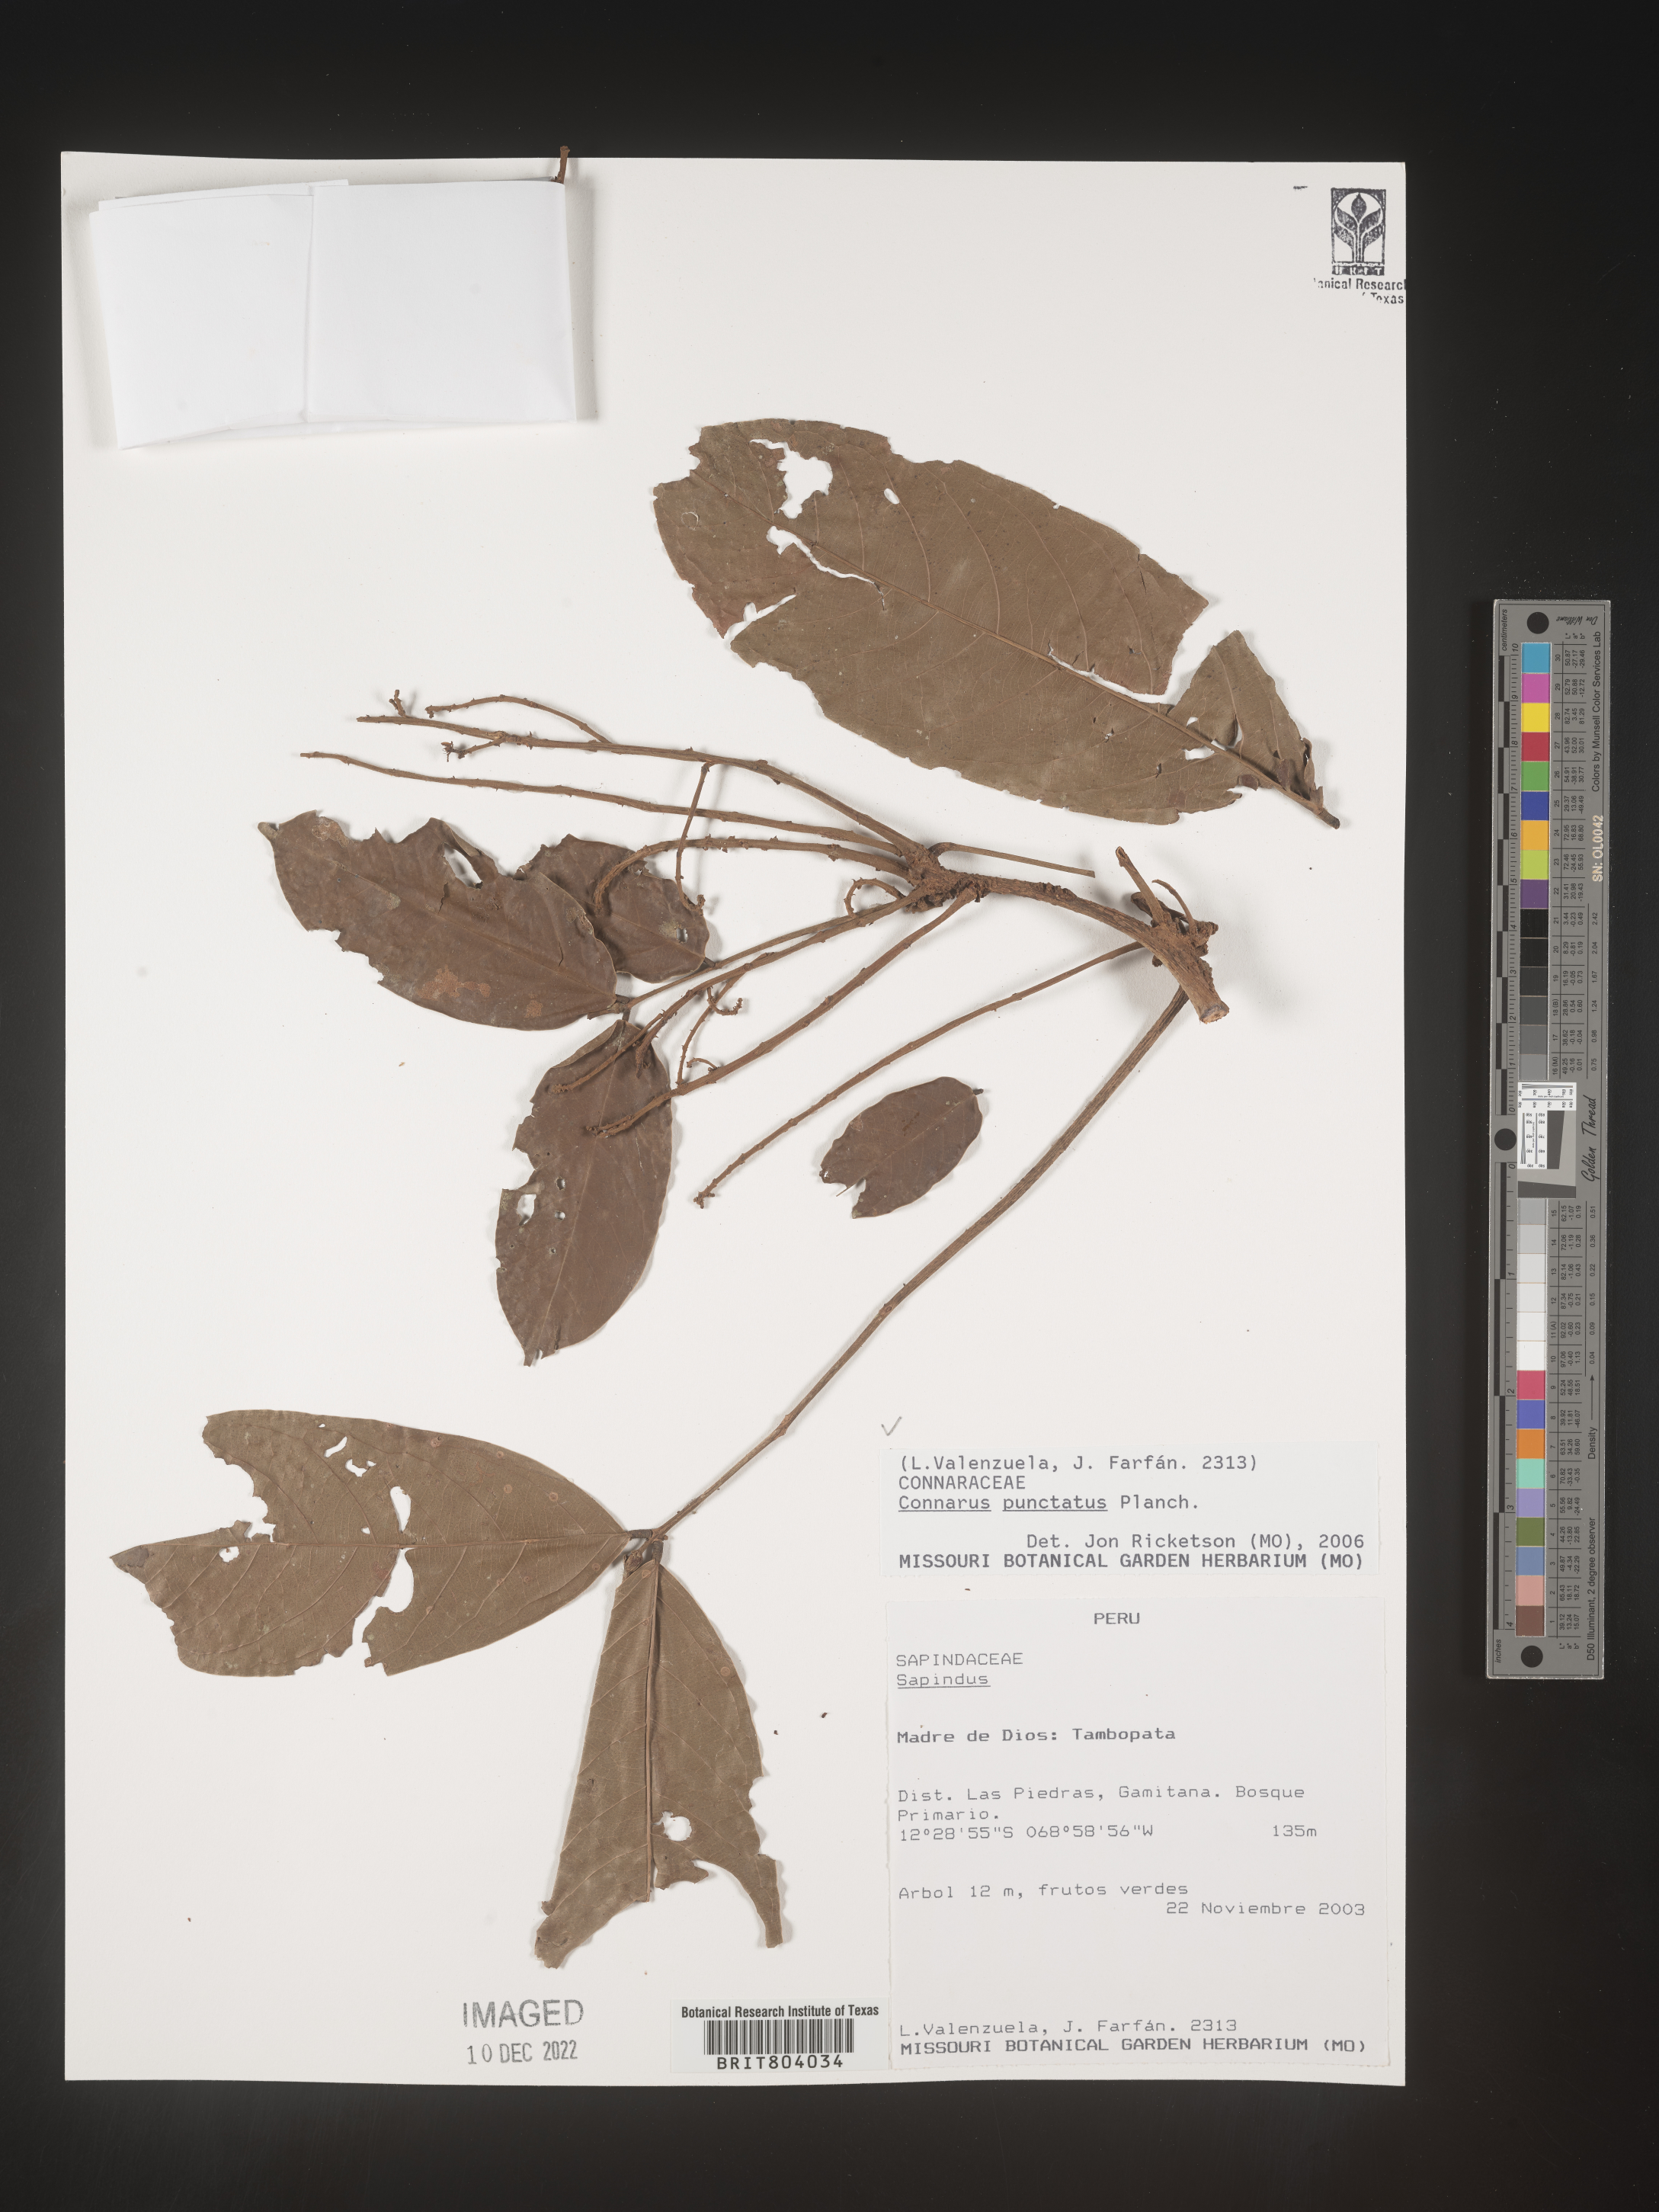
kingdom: Plantae
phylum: Tracheophyta
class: Magnoliopsida
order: Oxalidales
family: Connaraceae
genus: Connarus
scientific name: Connarus
